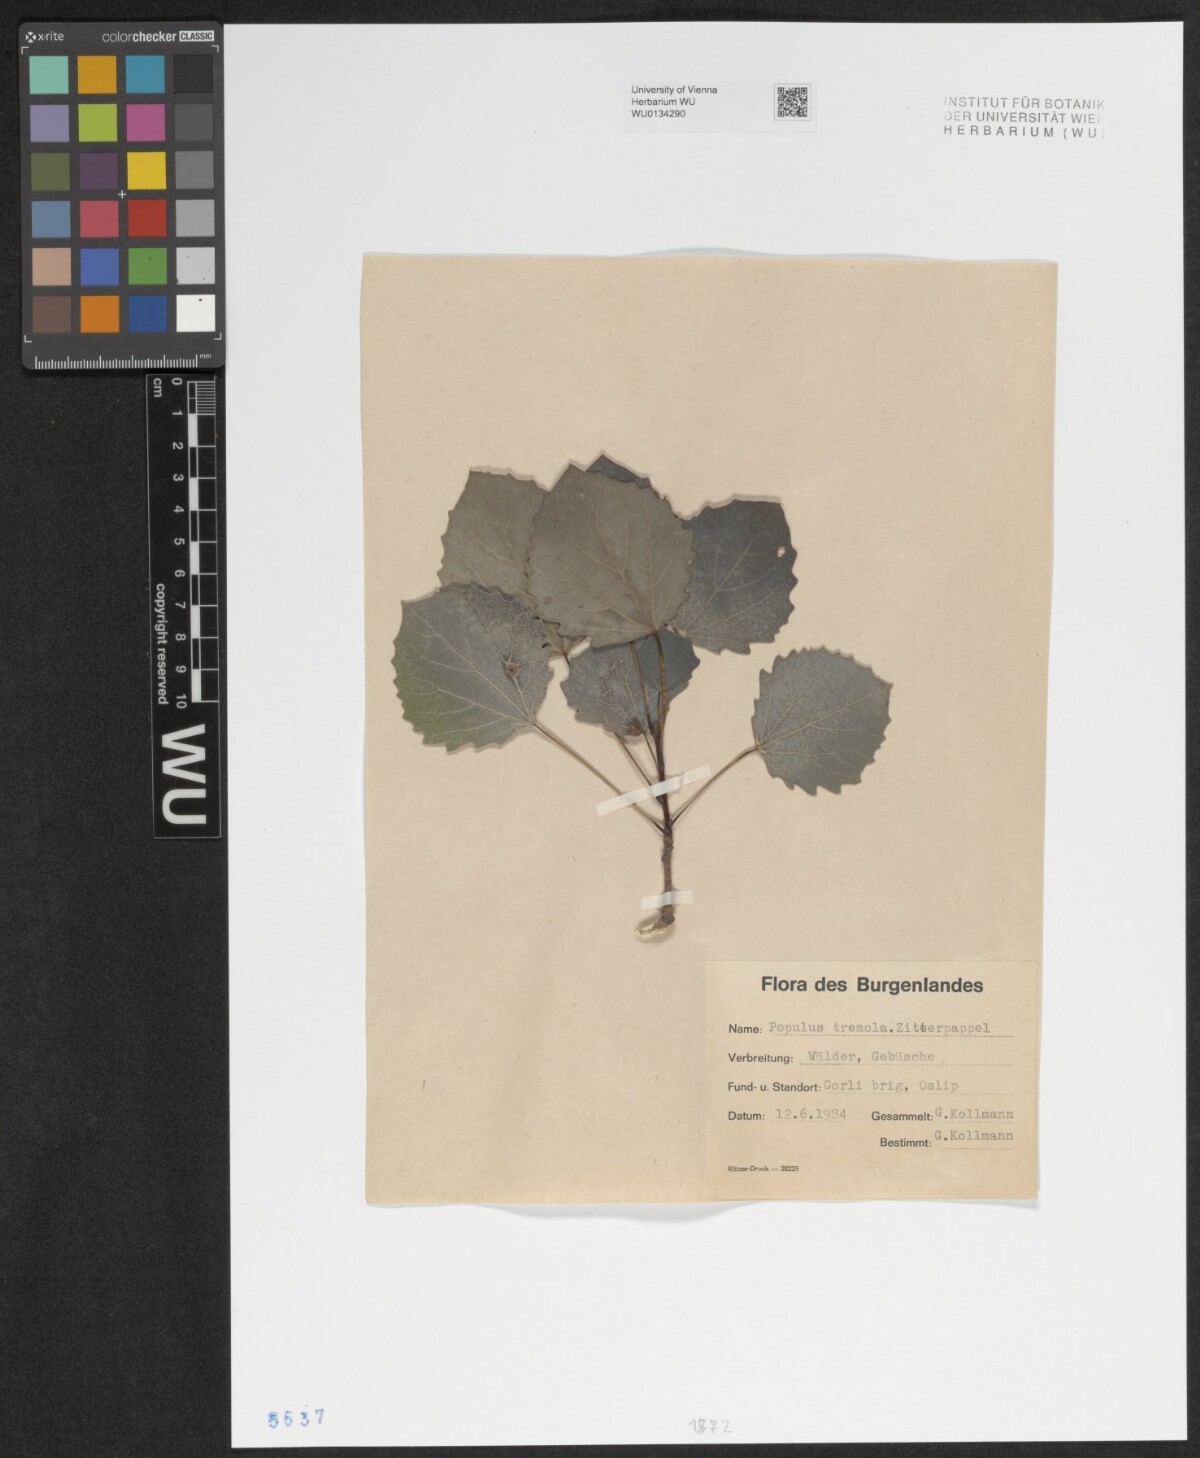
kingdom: Plantae
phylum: Tracheophyta
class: Magnoliopsida
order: Malpighiales
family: Salicaceae
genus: Populus
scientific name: Populus tremula
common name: European aspen
